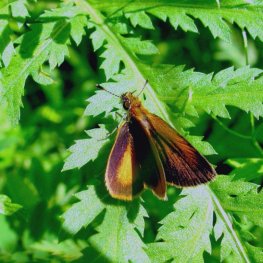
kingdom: Animalia
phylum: Arthropoda
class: Insecta
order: Lepidoptera
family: Hesperiidae
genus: Ancyloxypha
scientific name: Ancyloxypha numitor
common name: Least Skipper
